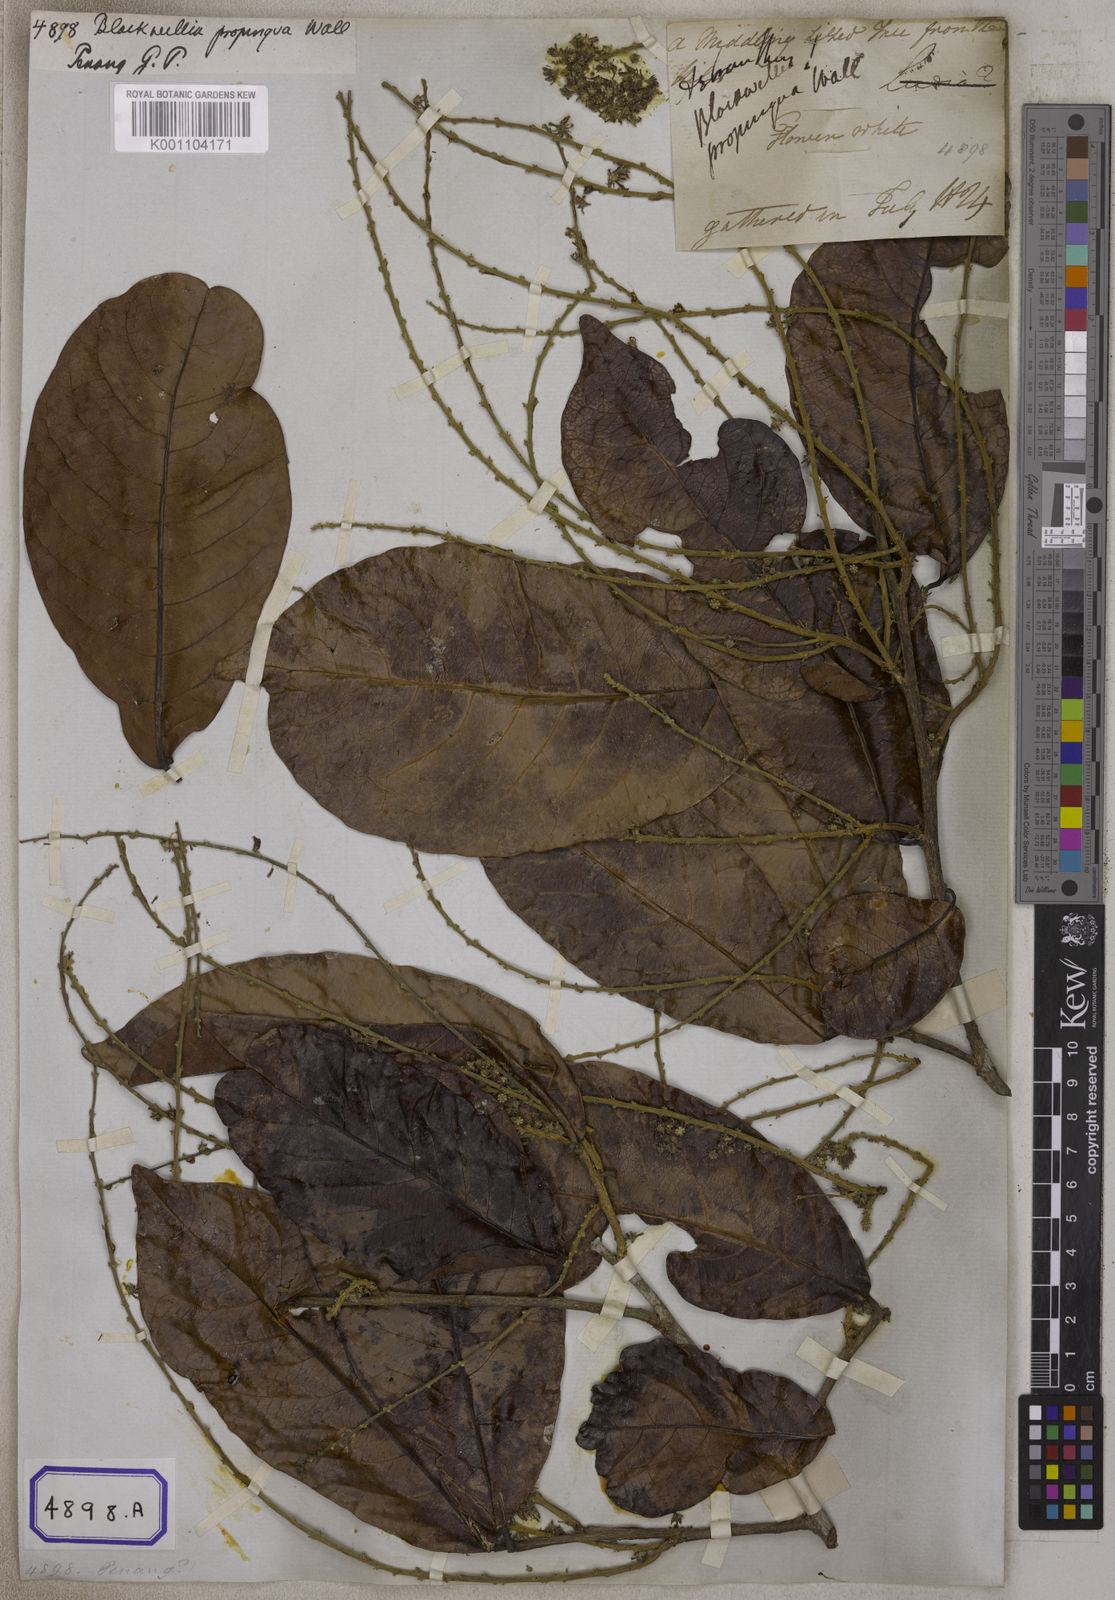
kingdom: Plantae
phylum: Tracheophyta
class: Magnoliopsida
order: Malpighiales
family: Salicaceae
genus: Homalium
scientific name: Homalium tomentosum
